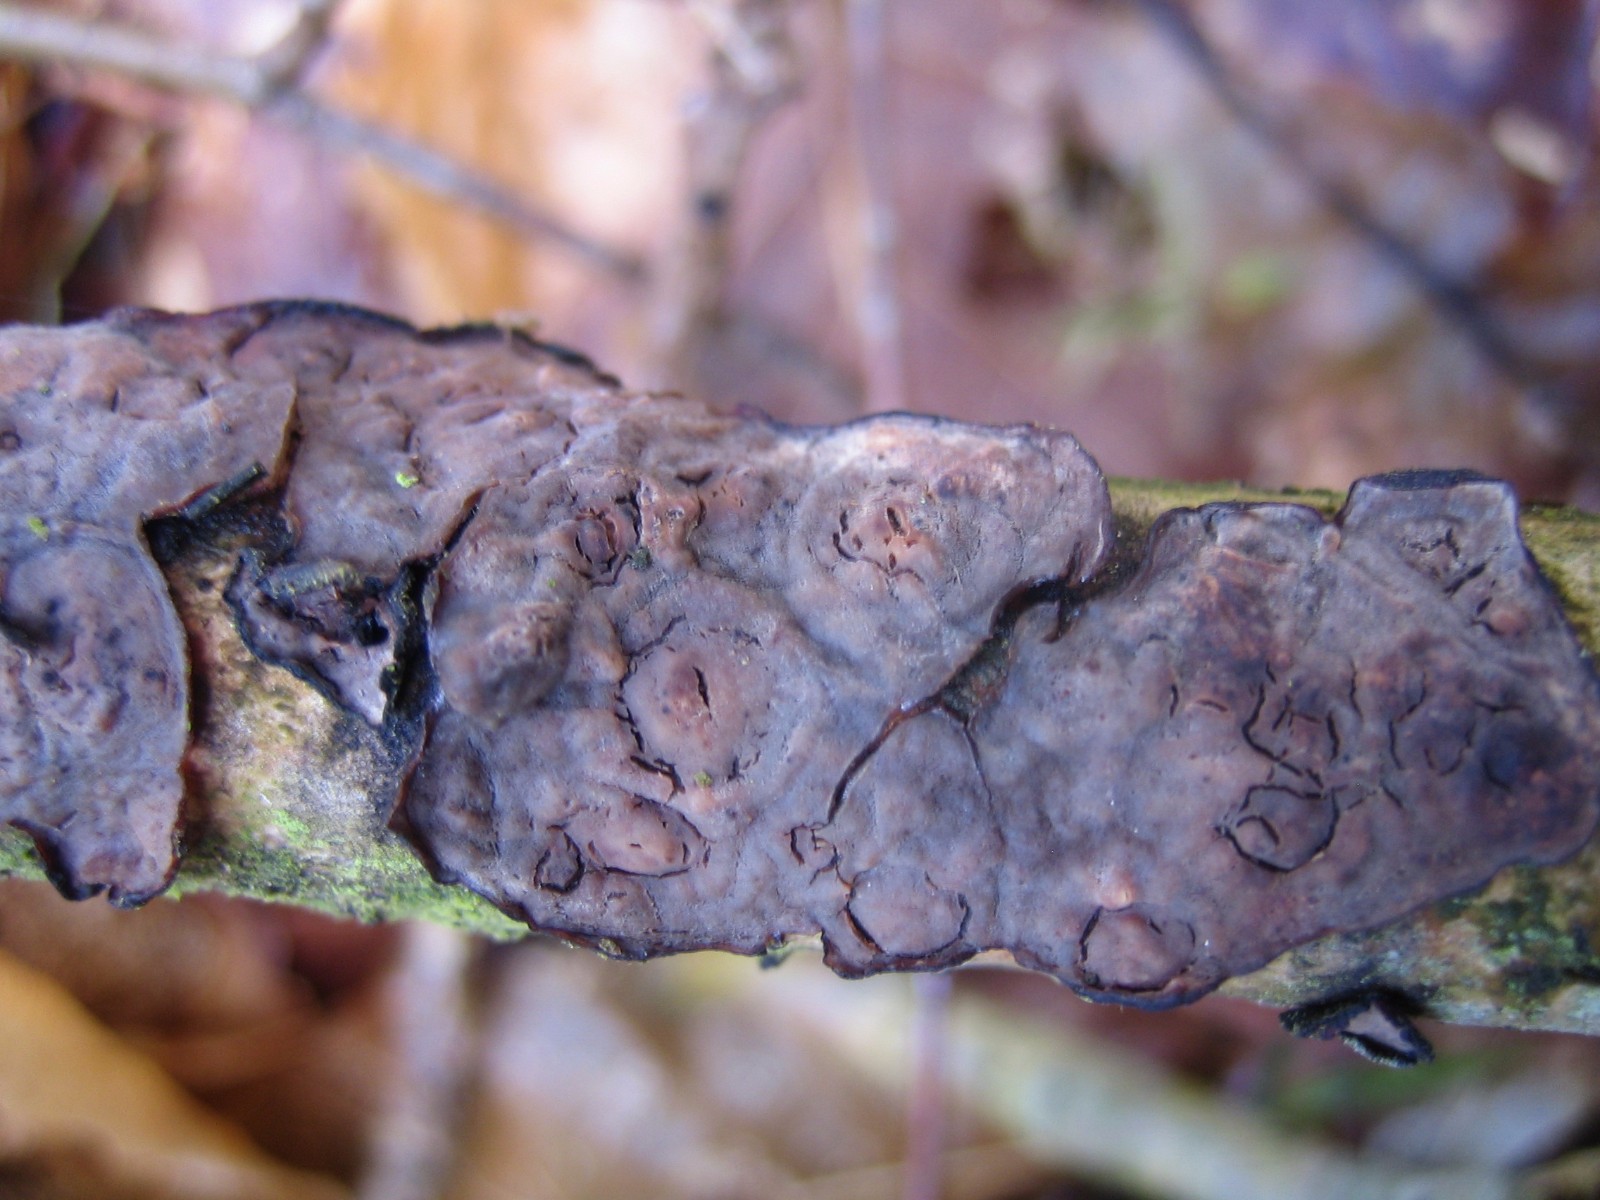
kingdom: Fungi
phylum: Basidiomycota
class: Agaricomycetes
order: Russulales
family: Peniophoraceae
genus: Peniophora
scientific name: Peniophora quercina
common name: ege-voksskind
